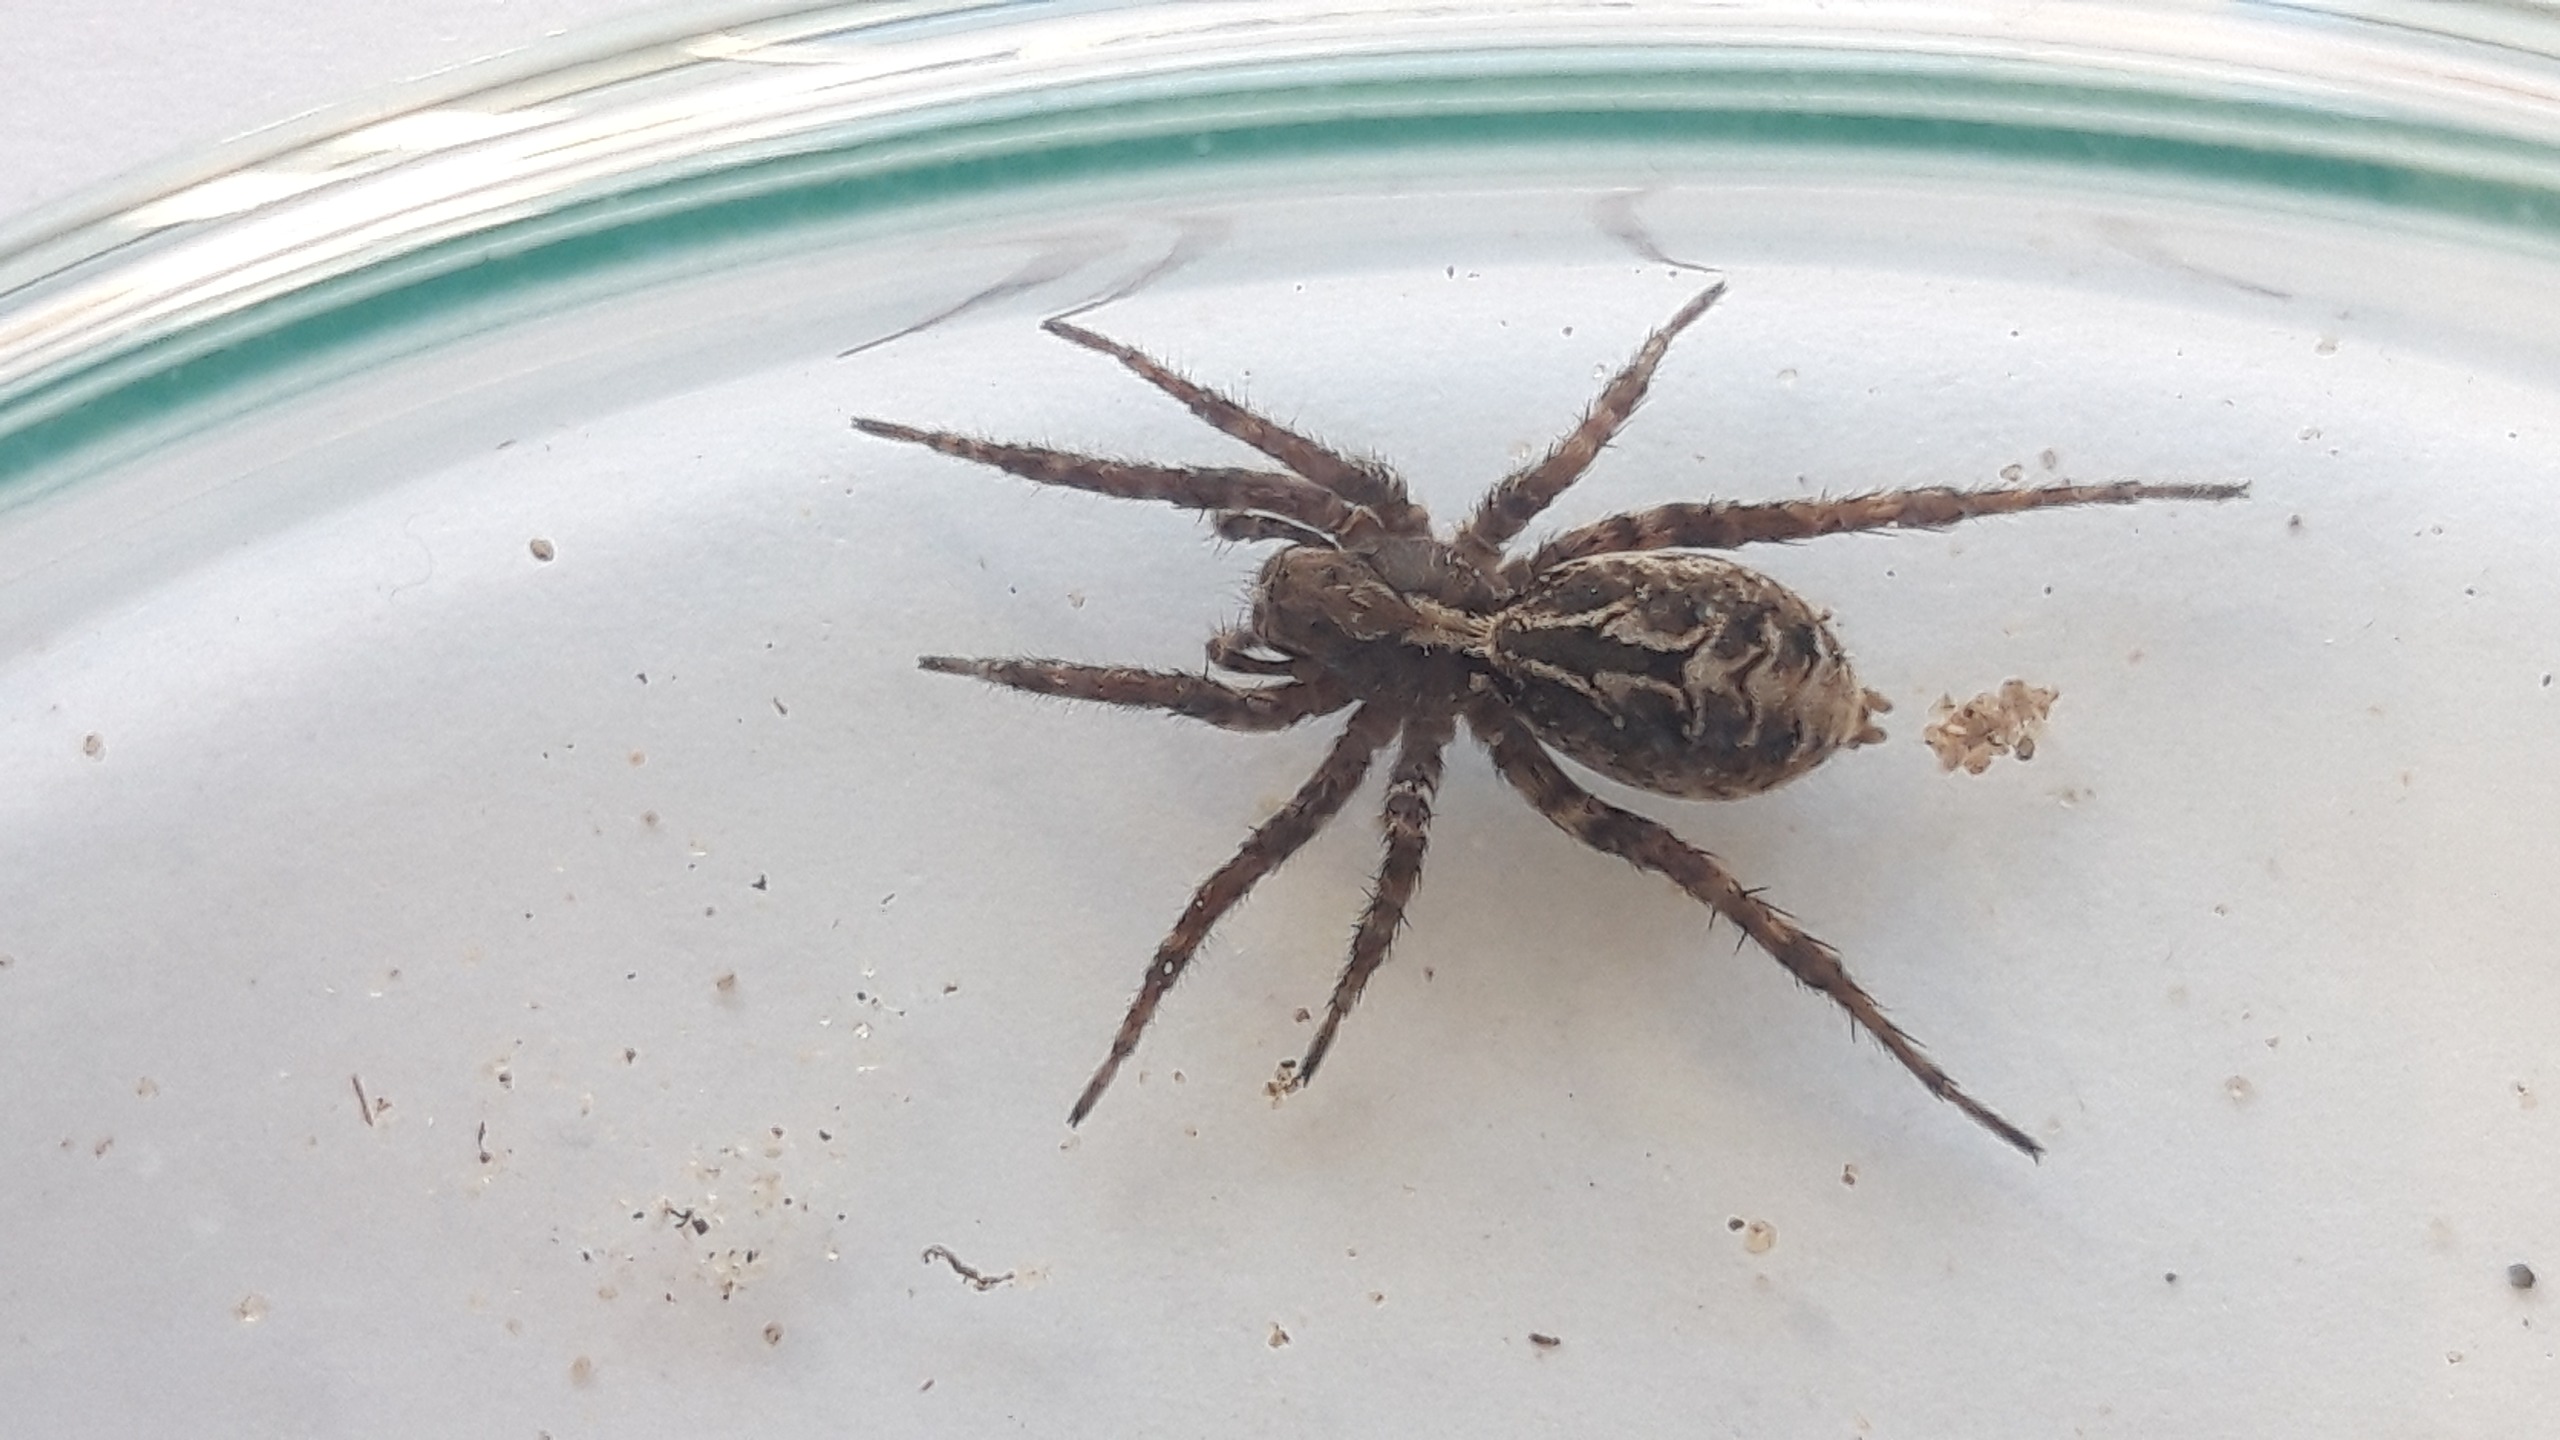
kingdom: Animalia
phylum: Arthropoda
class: Arachnida
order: Araneae
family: Lycosidae
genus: Alopecosa
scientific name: Alopecosa barbipes
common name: Klitkæmpejæger
